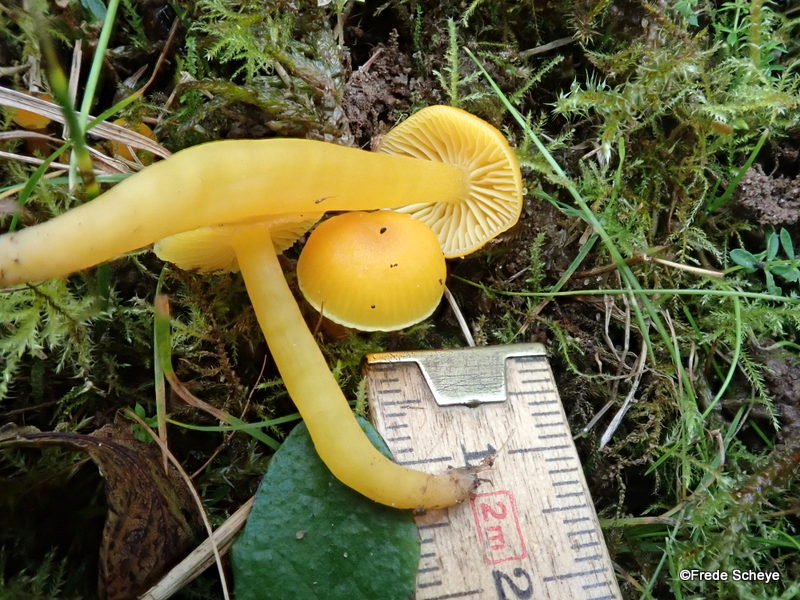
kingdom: Fungi
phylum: Basidiomycota
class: Agaricomycetes
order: Agaricales
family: Hygrophoraceae
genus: Hygrocybe
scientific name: Hygrocybe ceracea
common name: voksgul vokshat
